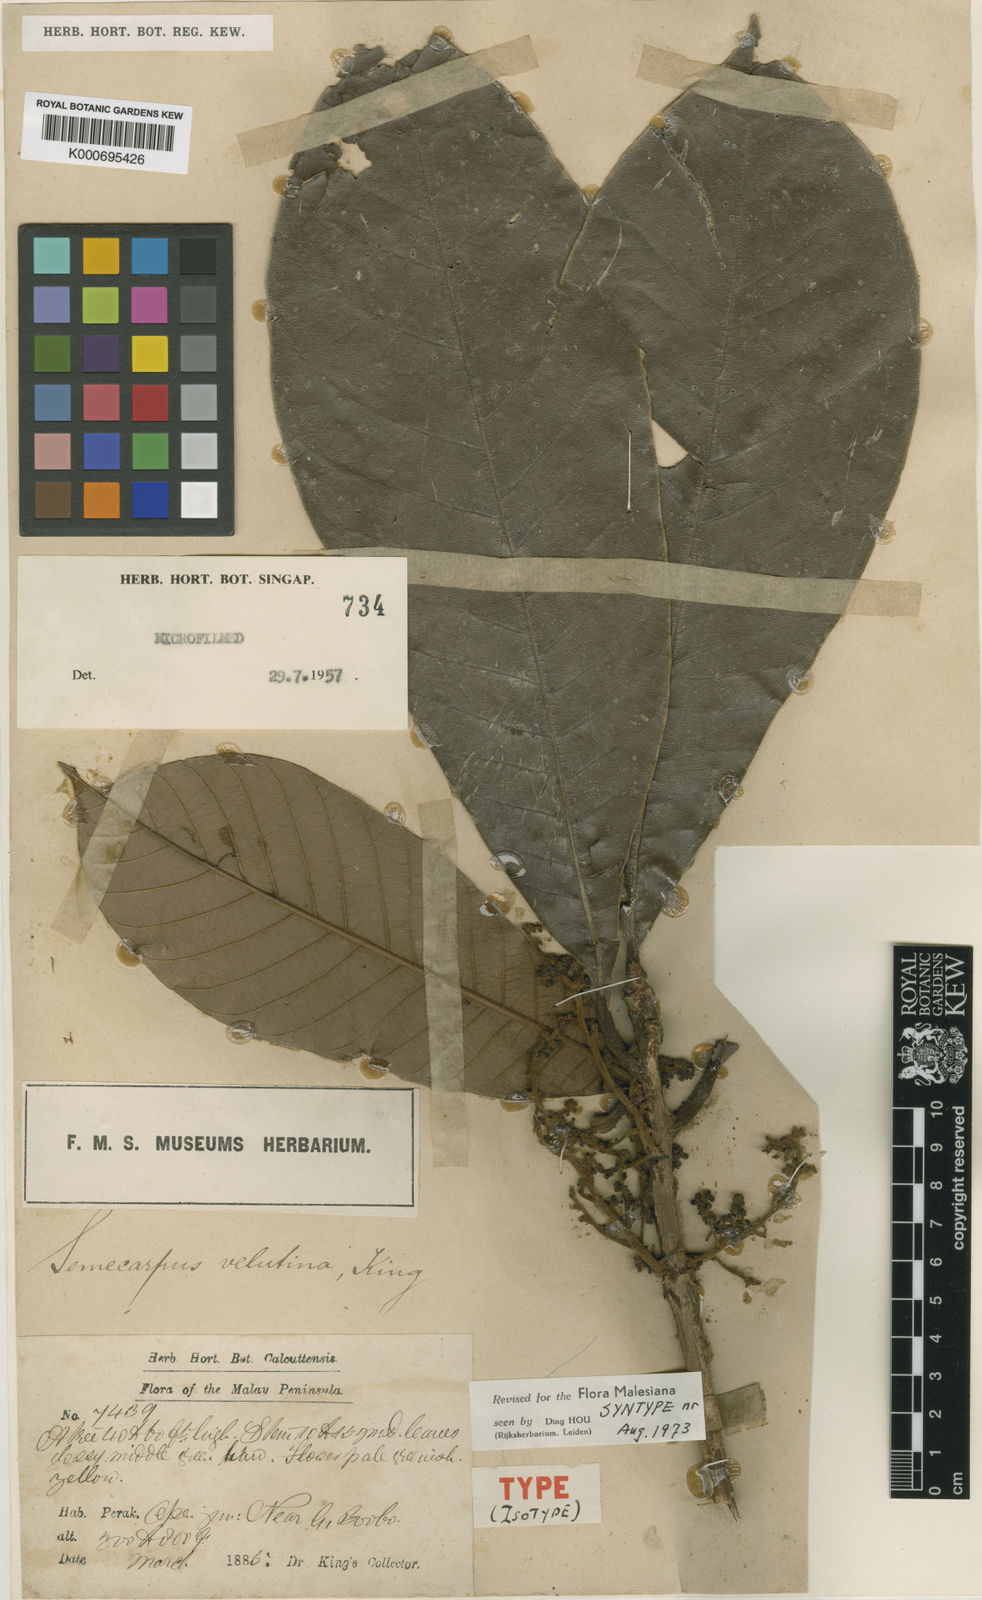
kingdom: Plantae
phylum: Tracheophyta
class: Magnoliopsida
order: Sapindales
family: Anacardiaceae
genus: Semecarpus
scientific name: Semecarpus velutinus
